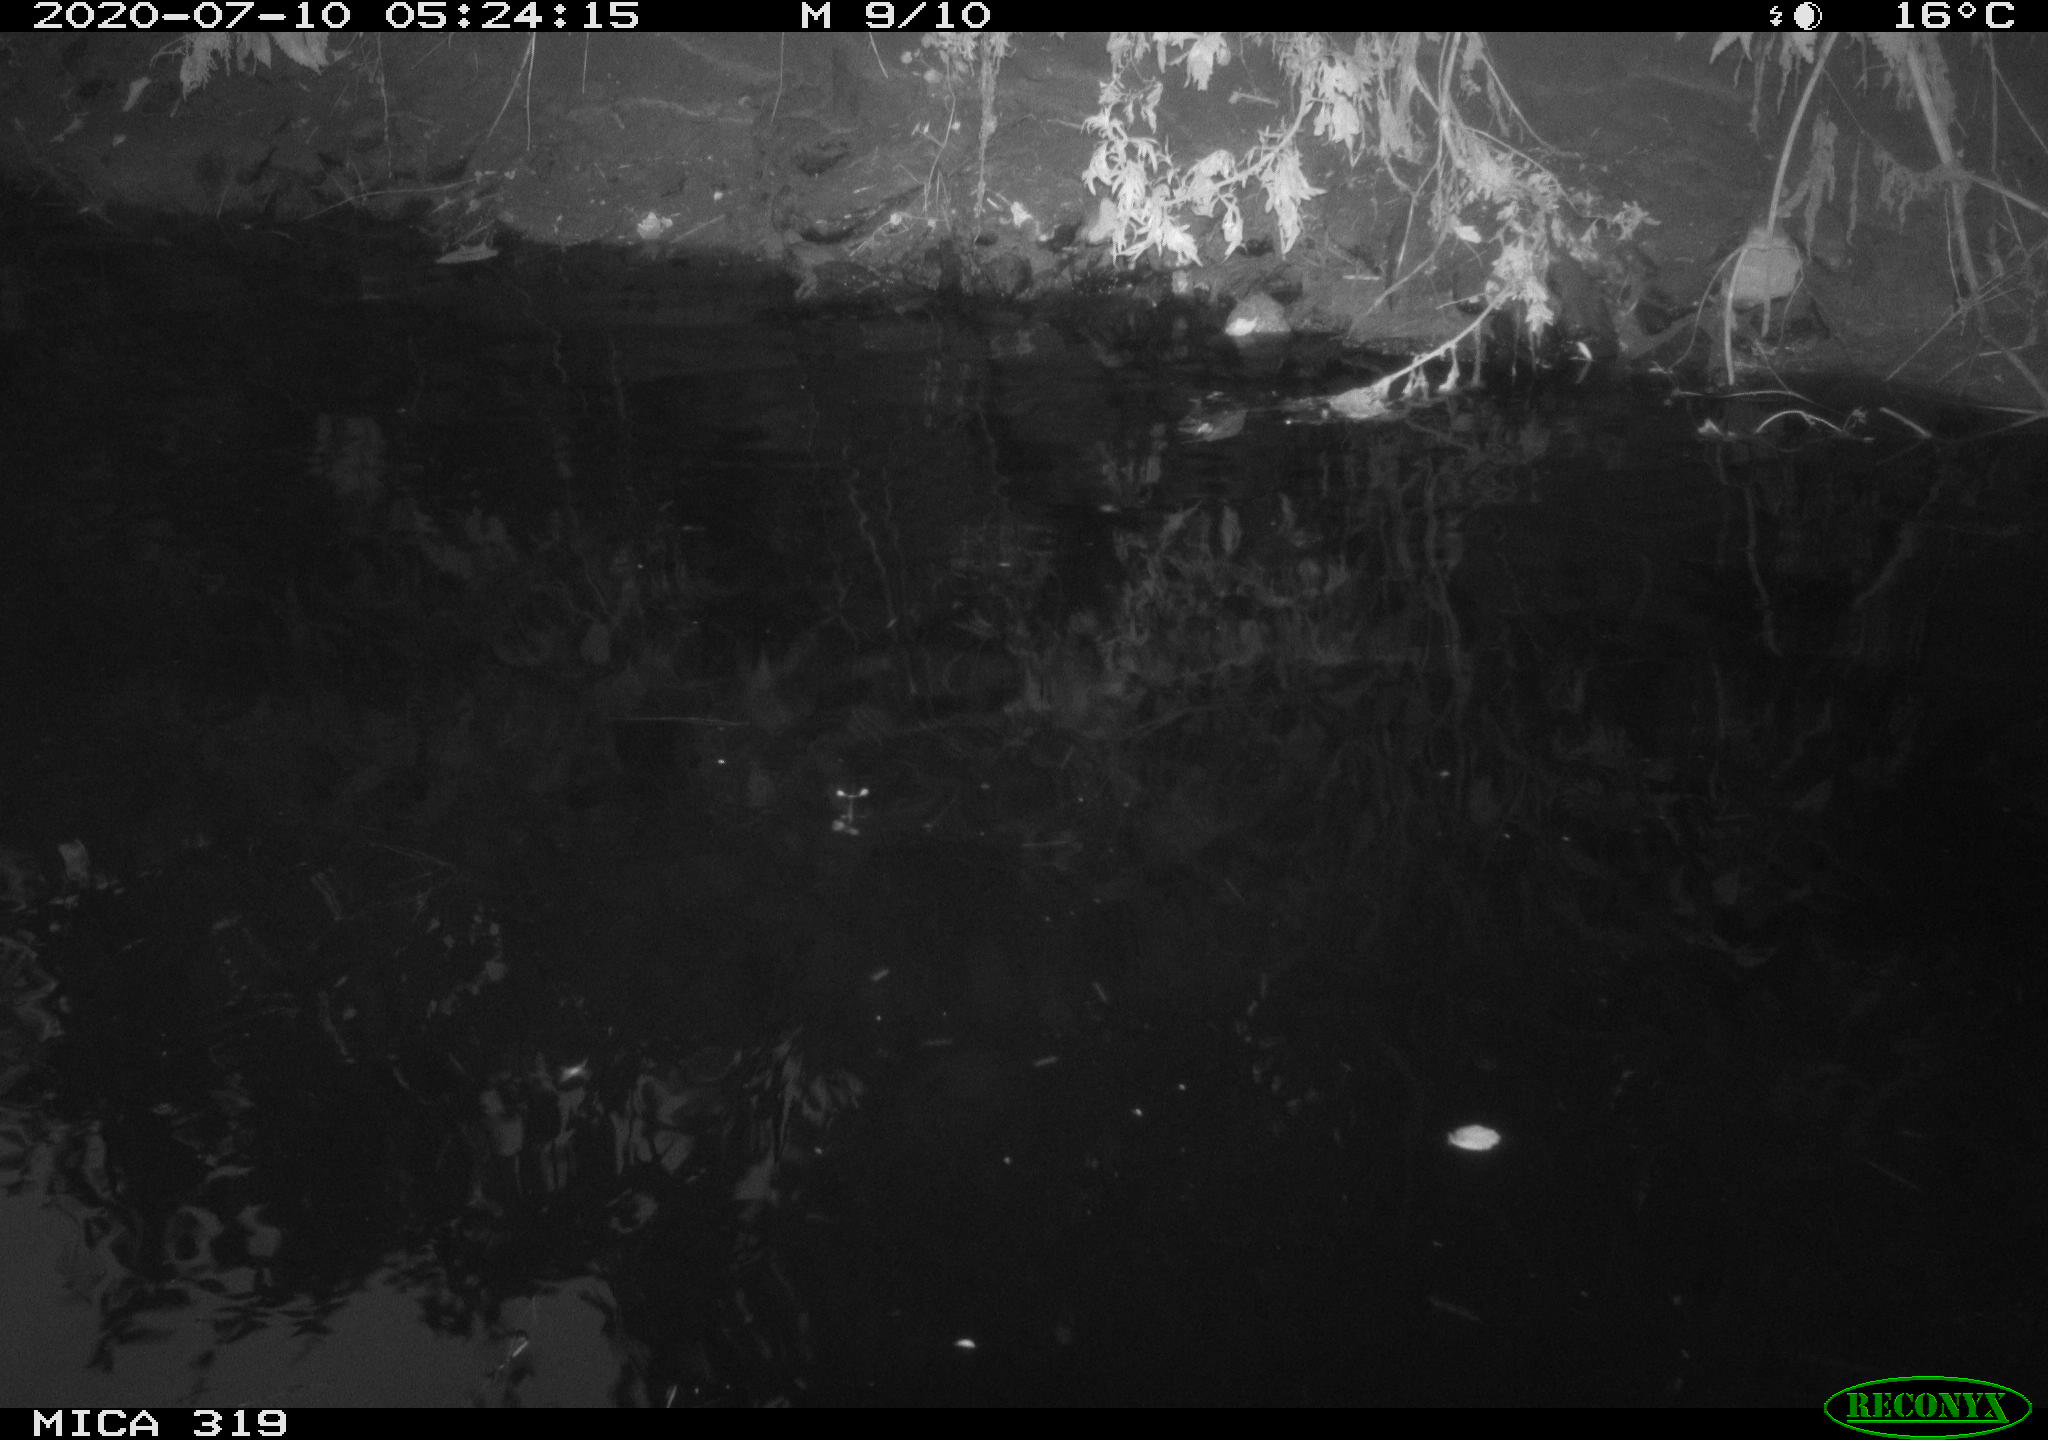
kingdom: Animalia
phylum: Chordata
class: Aves
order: Anseriformes
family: Anatidae
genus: Anas
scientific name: Anas platyrhynchos
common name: Mallard
